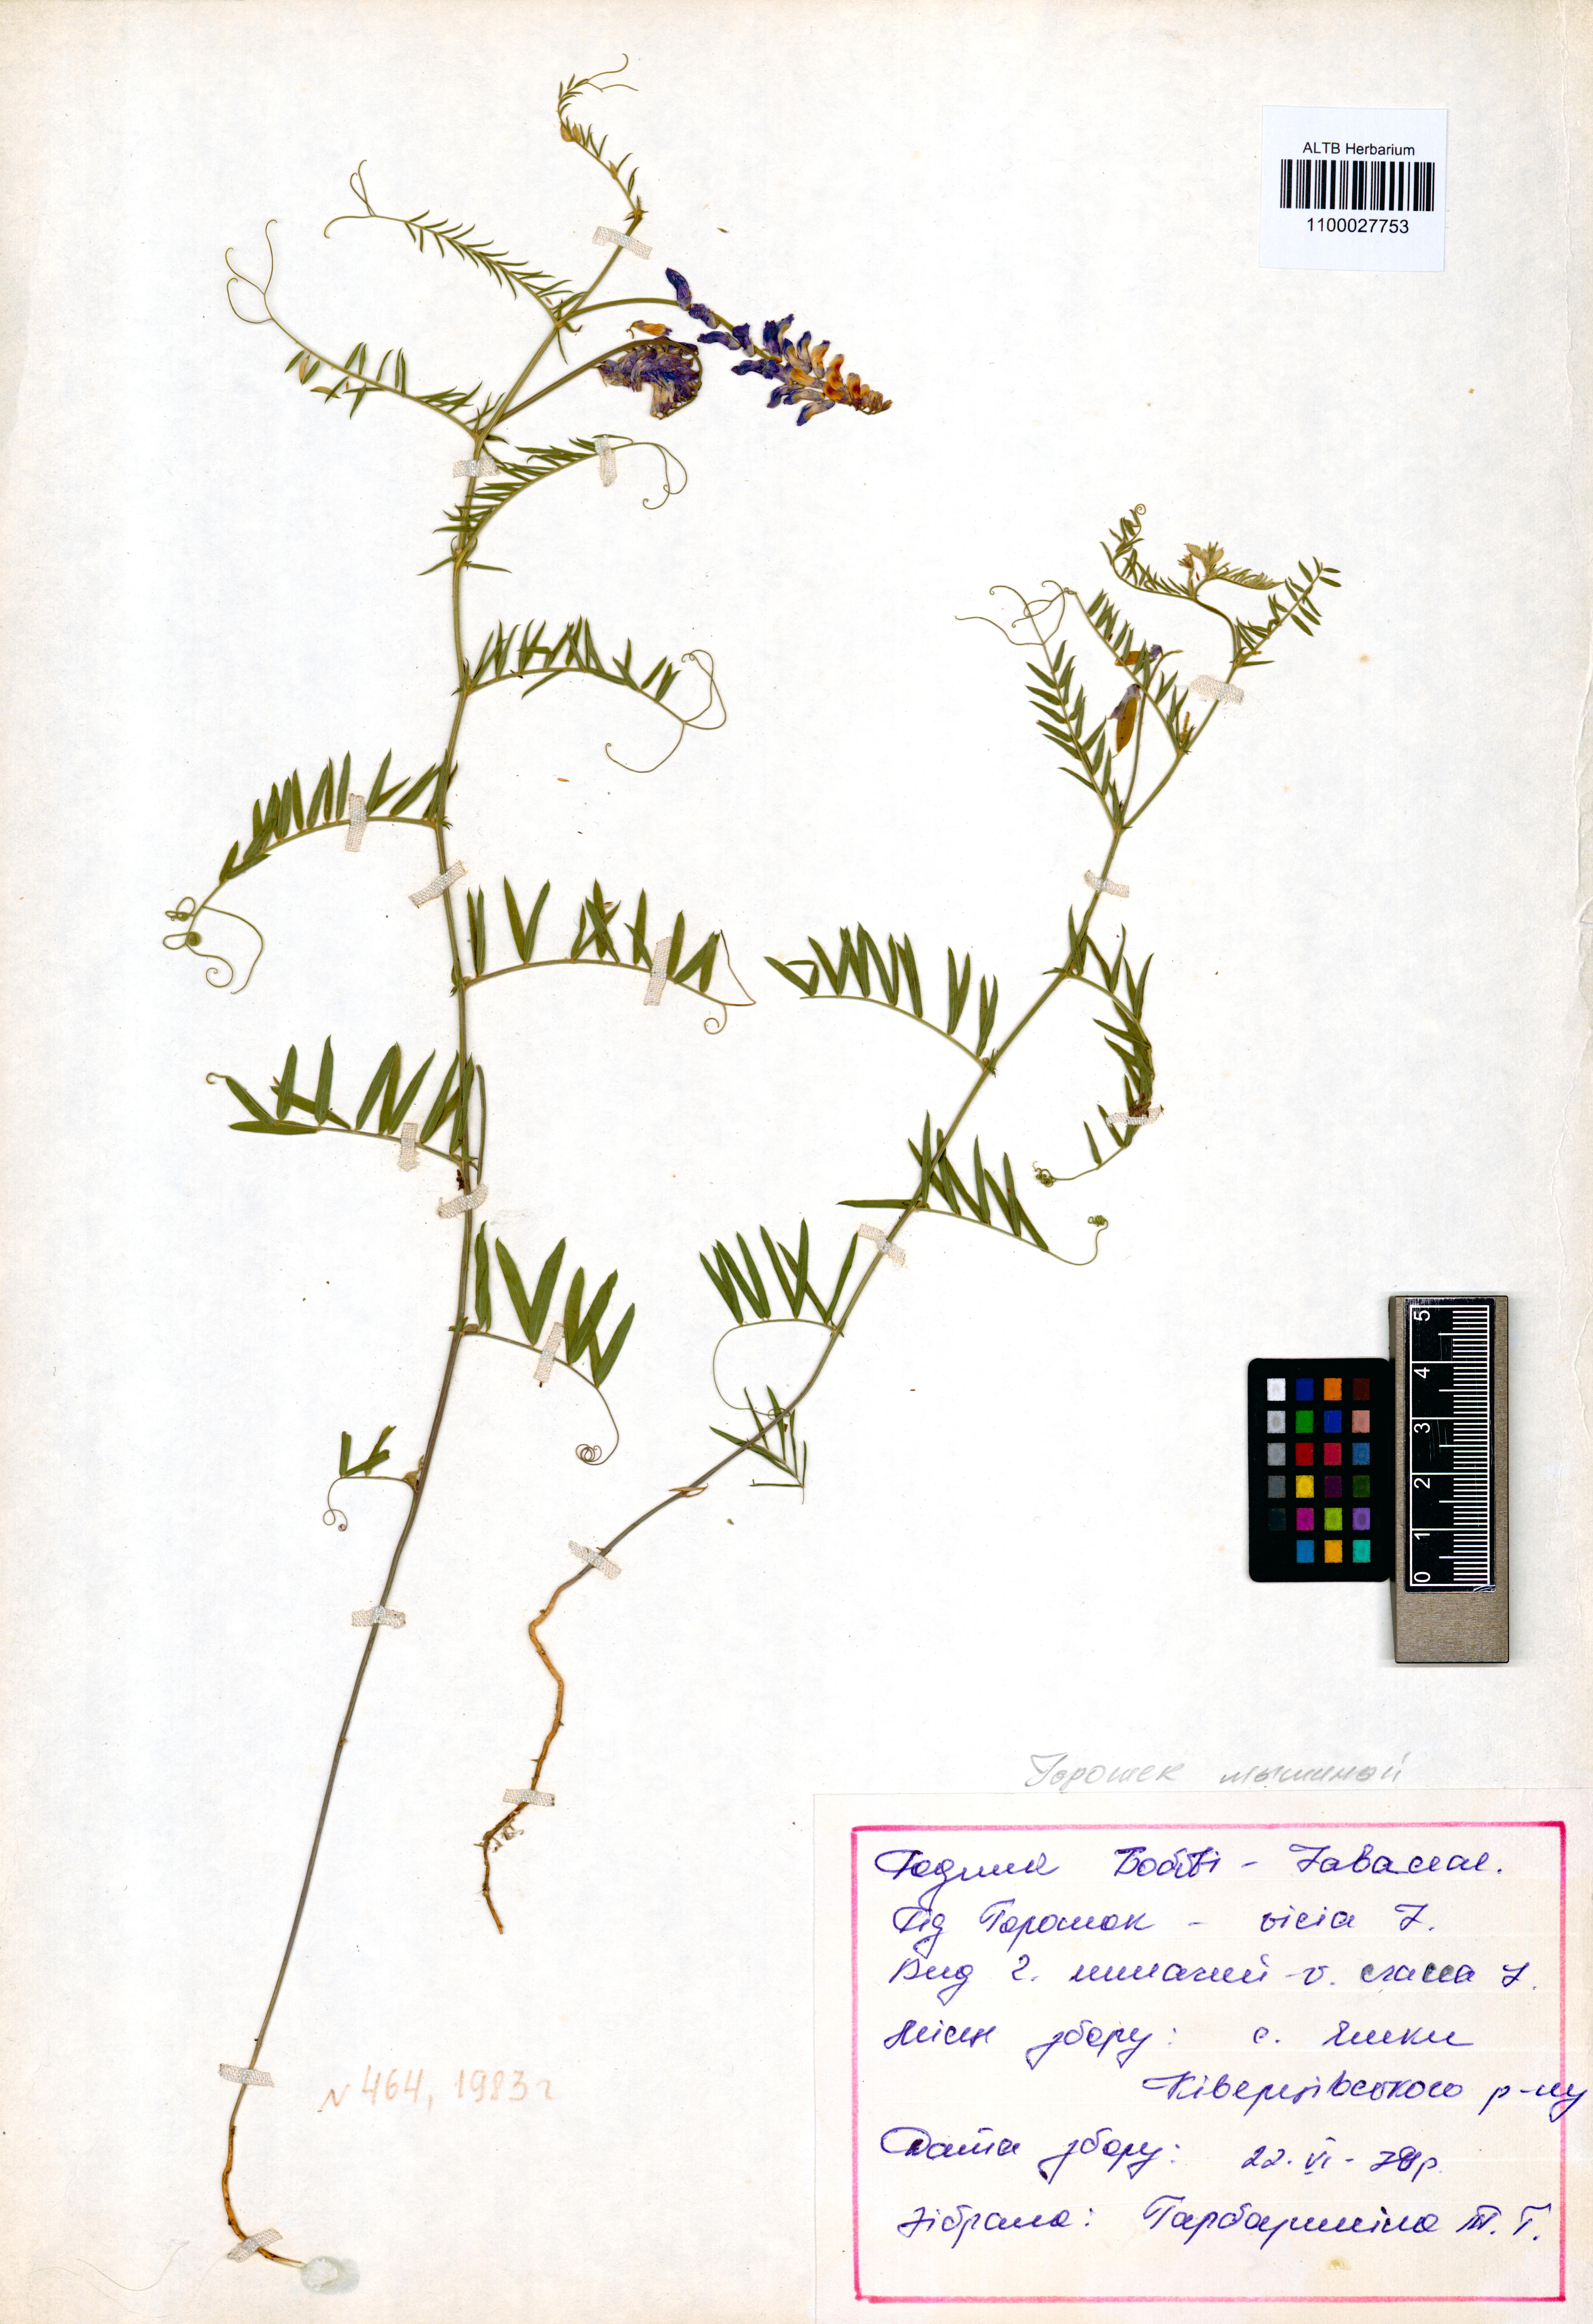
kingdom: Plantae
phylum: Tracheophyta
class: Magnoliopsida
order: Fabales
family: Fabaceae
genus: Vicia
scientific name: Vicia cracca
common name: Bird vetch
